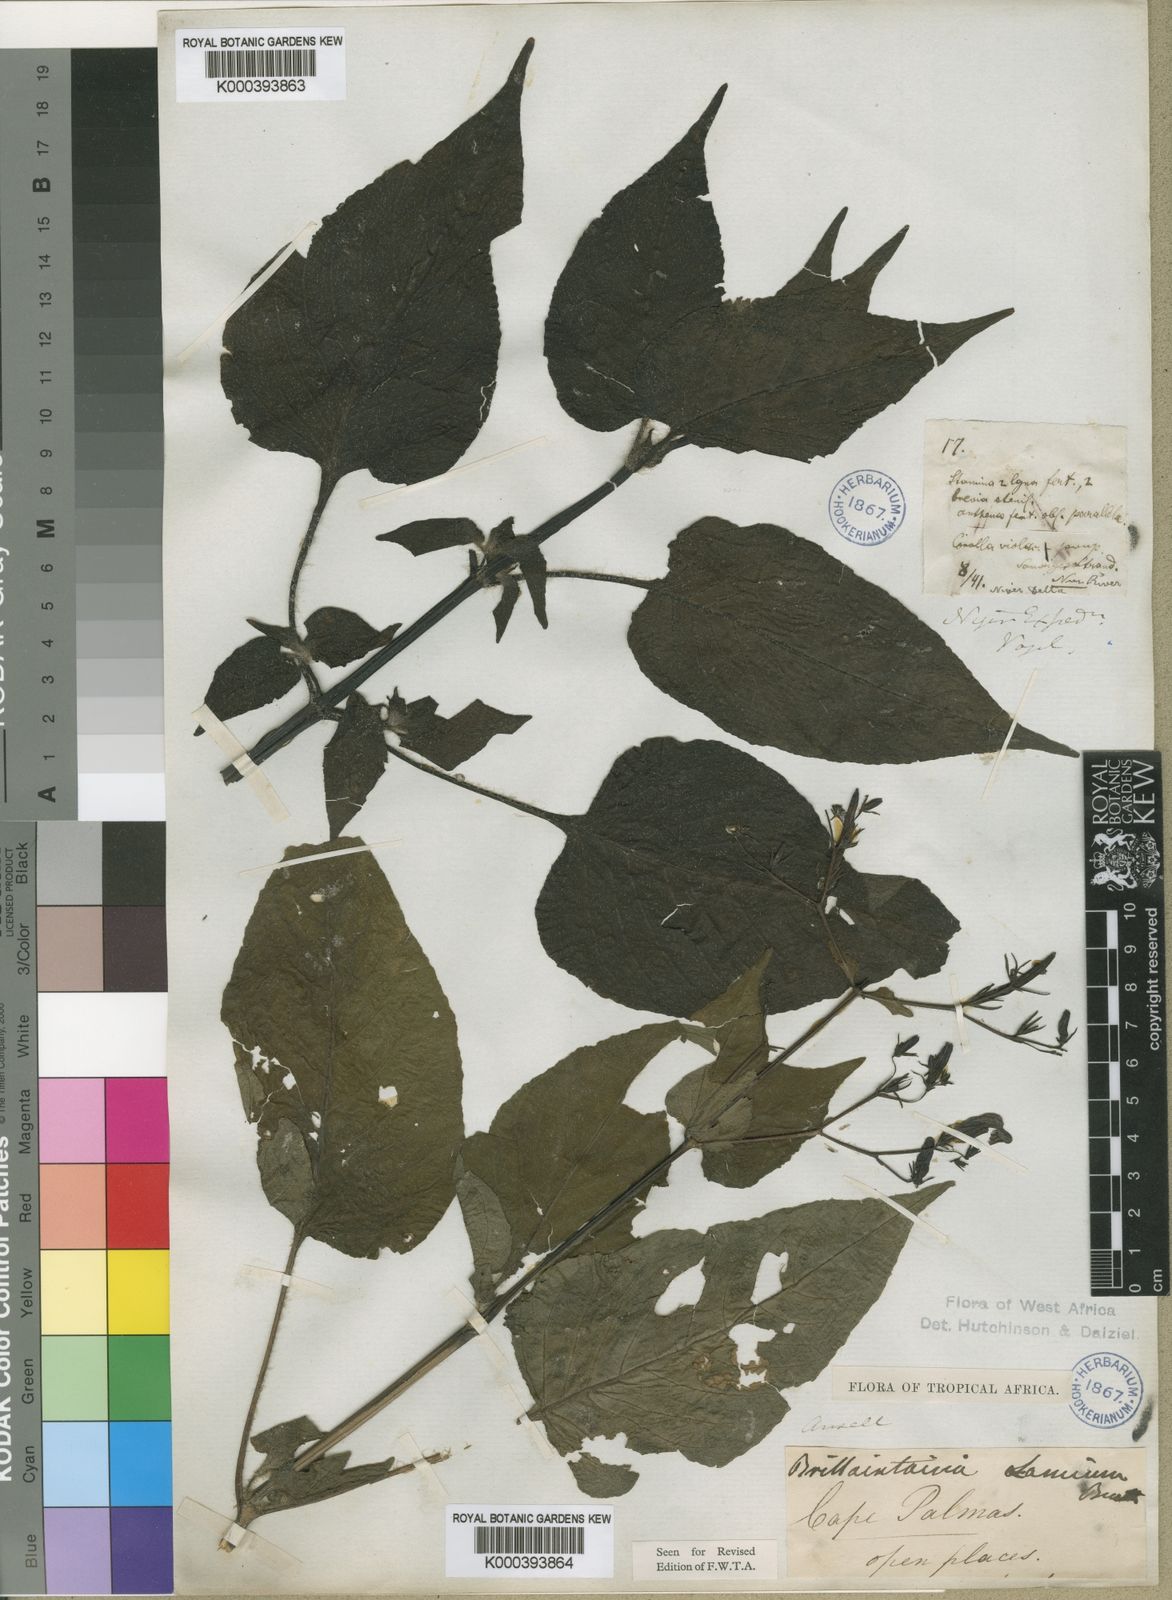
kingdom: Plantae
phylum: Tracheophyta
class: Magnoliopsida
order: Lamiales
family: Acanthaceae
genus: Brillantaisia
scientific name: Brillantaisia lamium
